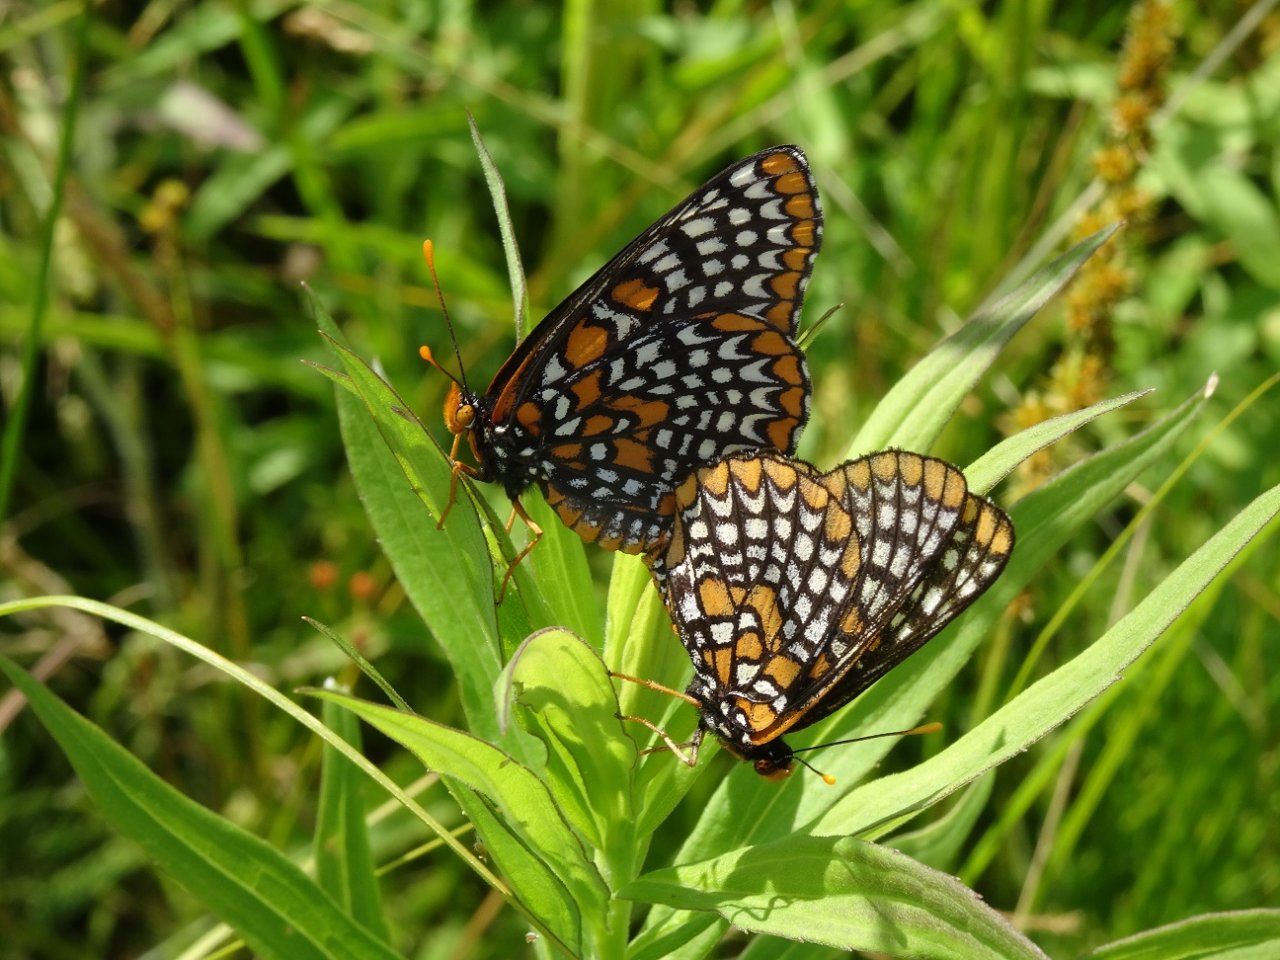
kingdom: Animalia
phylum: Arthropoda
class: Insecta
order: Lepidoptera
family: Nymphalidae
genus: Euphydryas
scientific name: Euphydryas phaeton
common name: Baltimore Checkerspot
